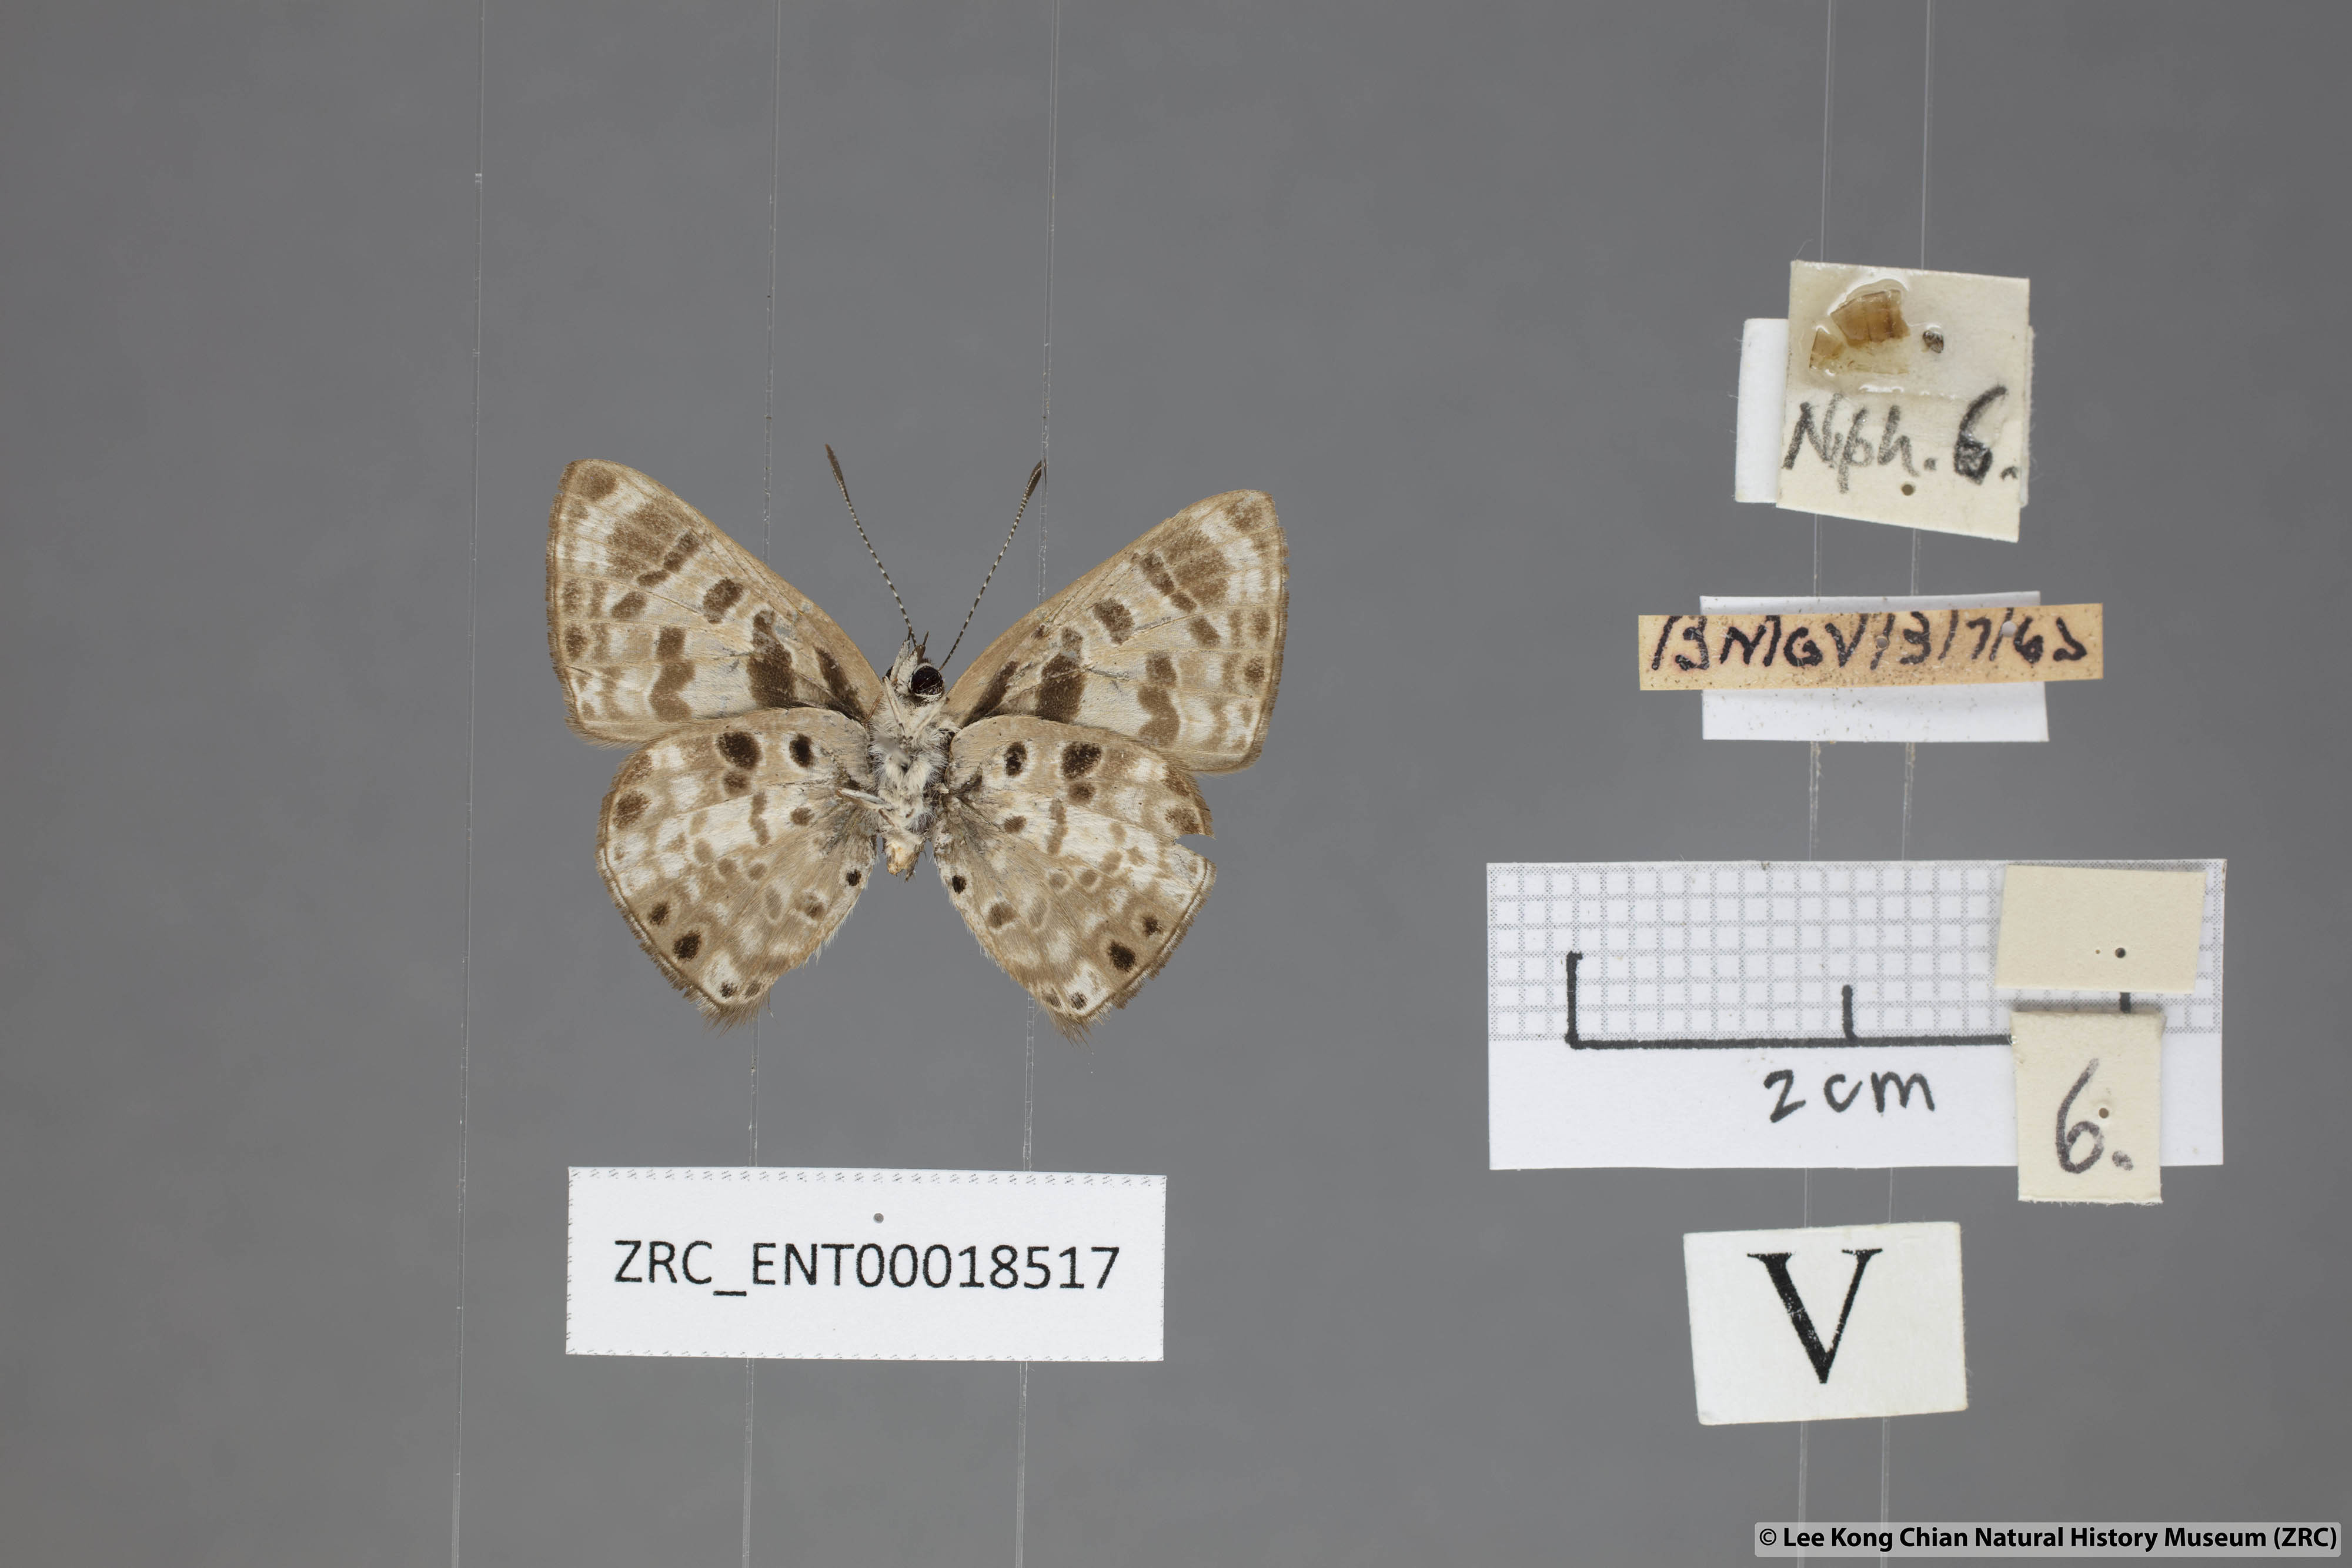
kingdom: Animalia
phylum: Arthropoda
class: Insecta
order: Lepidoptera
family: Lycaenidae
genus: Niphanda
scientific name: Niphanda cymbia
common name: Small pointed pierrot
